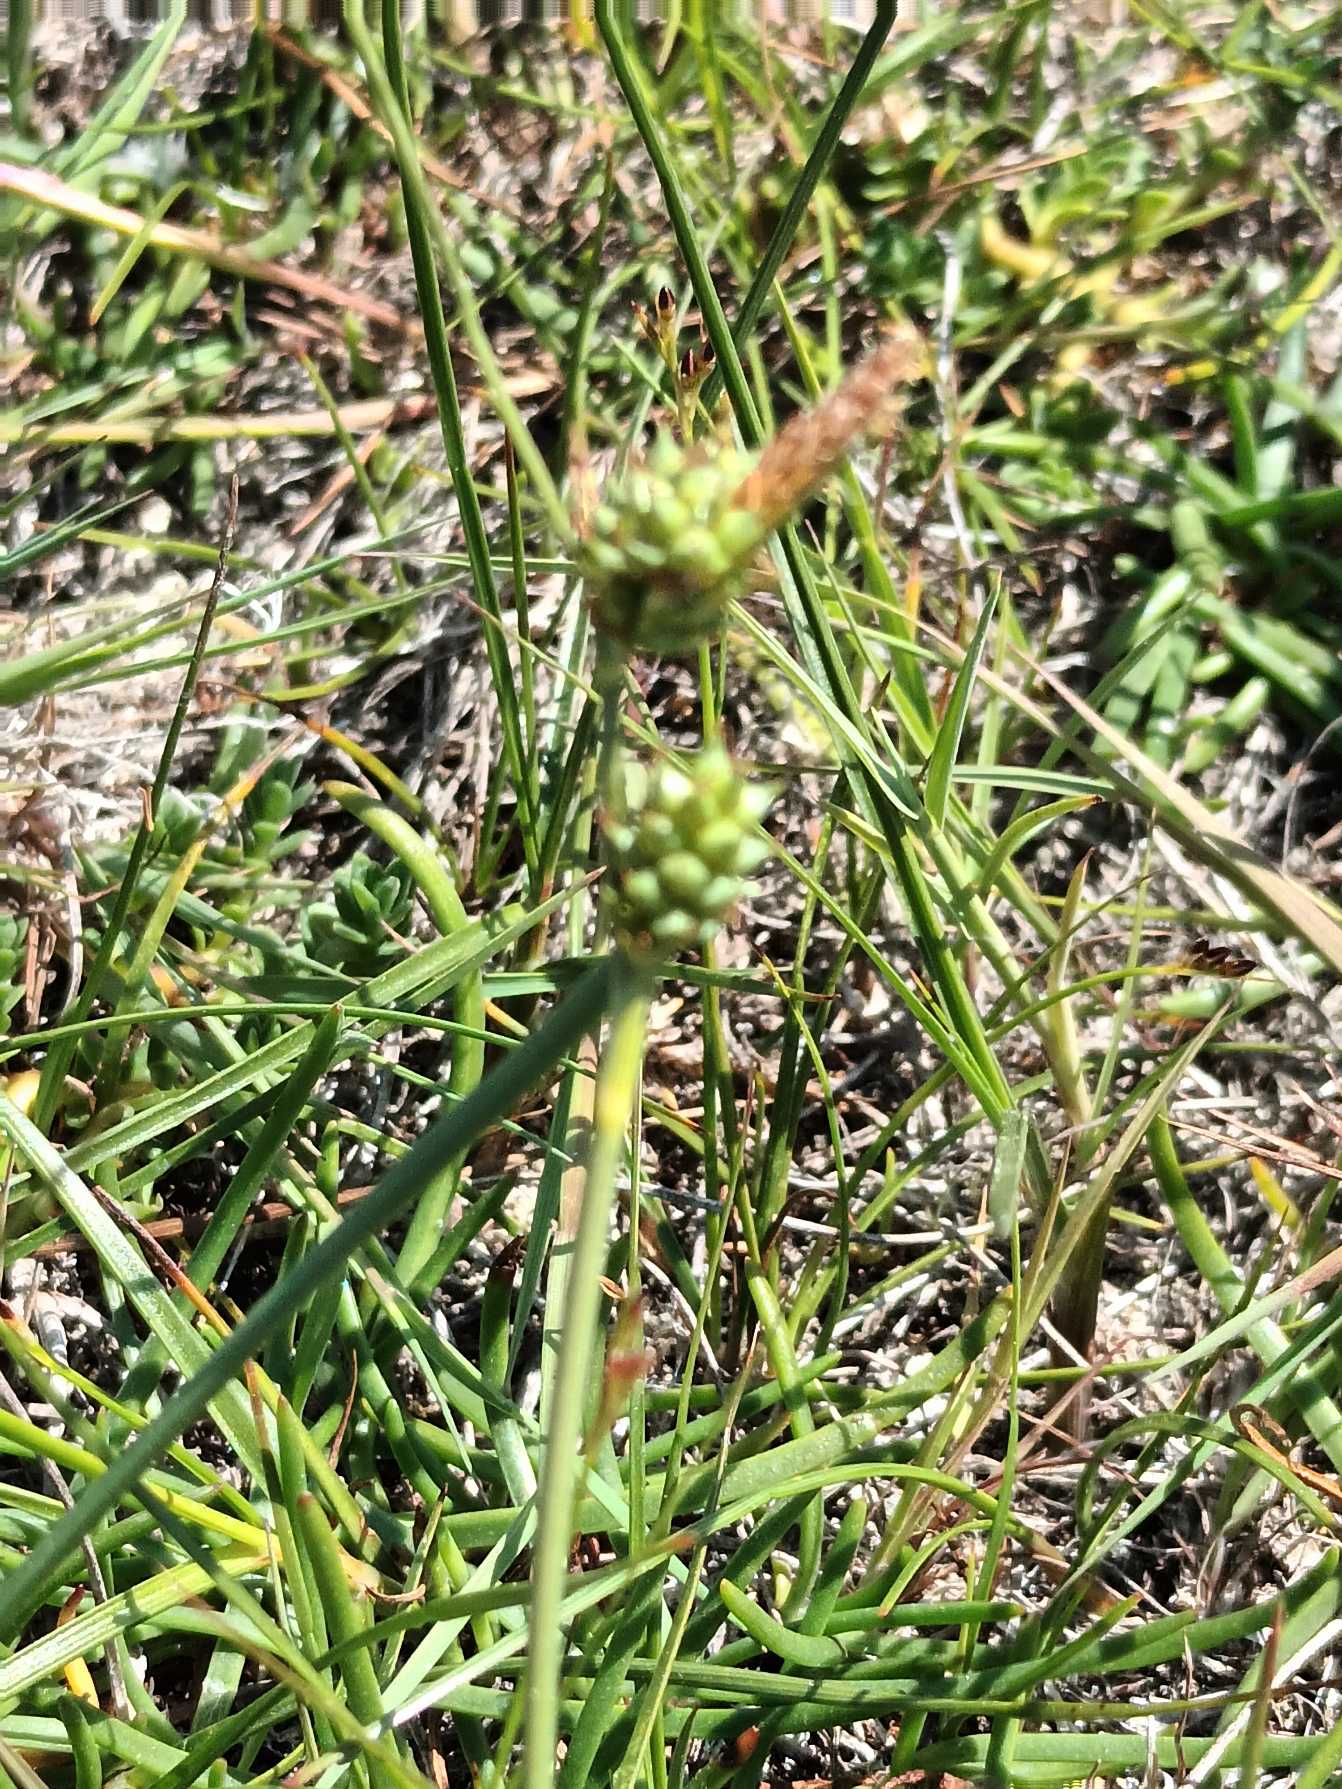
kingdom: Plantae
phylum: Tracheophyta
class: Liliopsida
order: Poales
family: Cyperaceae
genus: Carex
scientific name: Carex extensa
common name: Udspilet star
